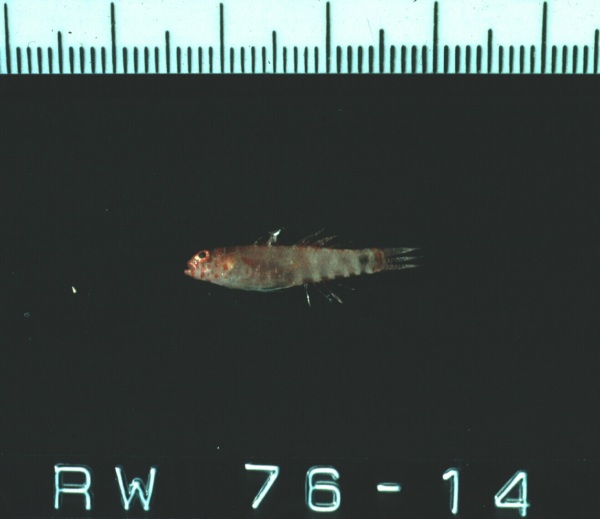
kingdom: Animalia
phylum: Chordata
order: Perciformes
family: Gobiidae
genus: Eviota
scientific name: Eviota sodwanaensis
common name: Sodwana dwarfgoby
